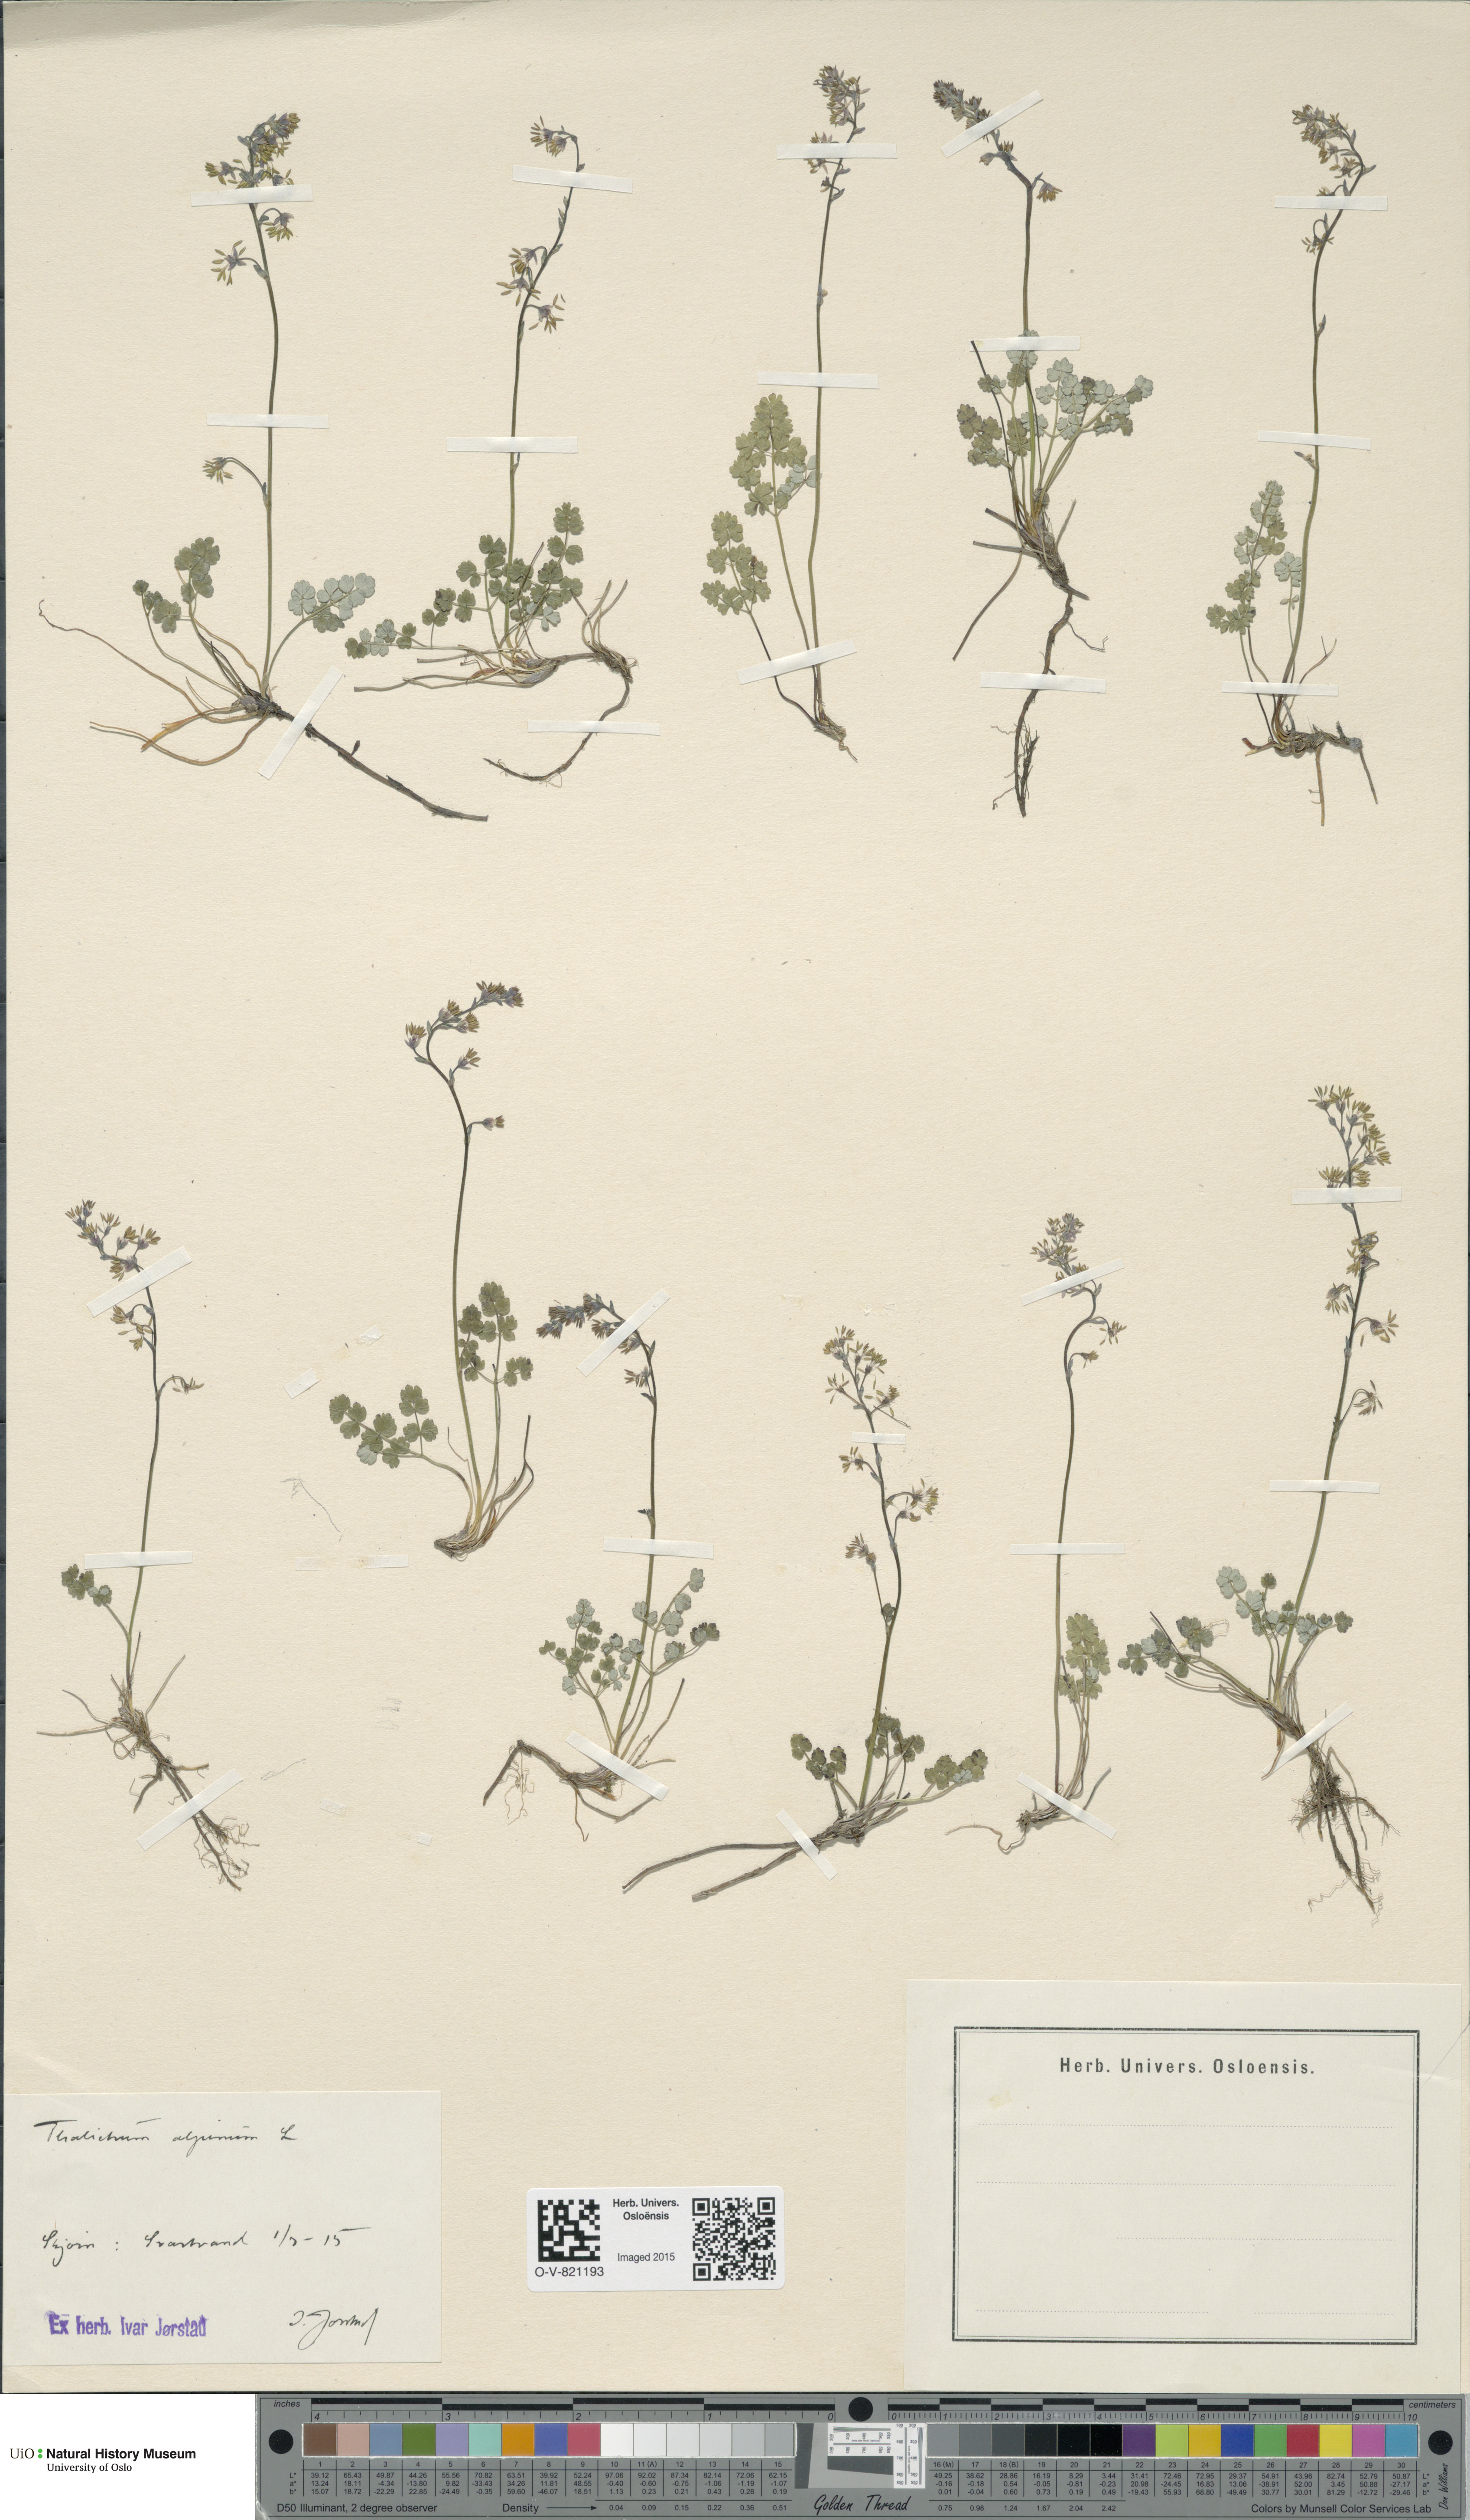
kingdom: Plantae
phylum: Tracheophyta
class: Magnoliopsida
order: Ranunculales
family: Ranunculaceae
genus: Thalictrum
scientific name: Thalictrum alpinum
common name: Alpine meadow-rue
